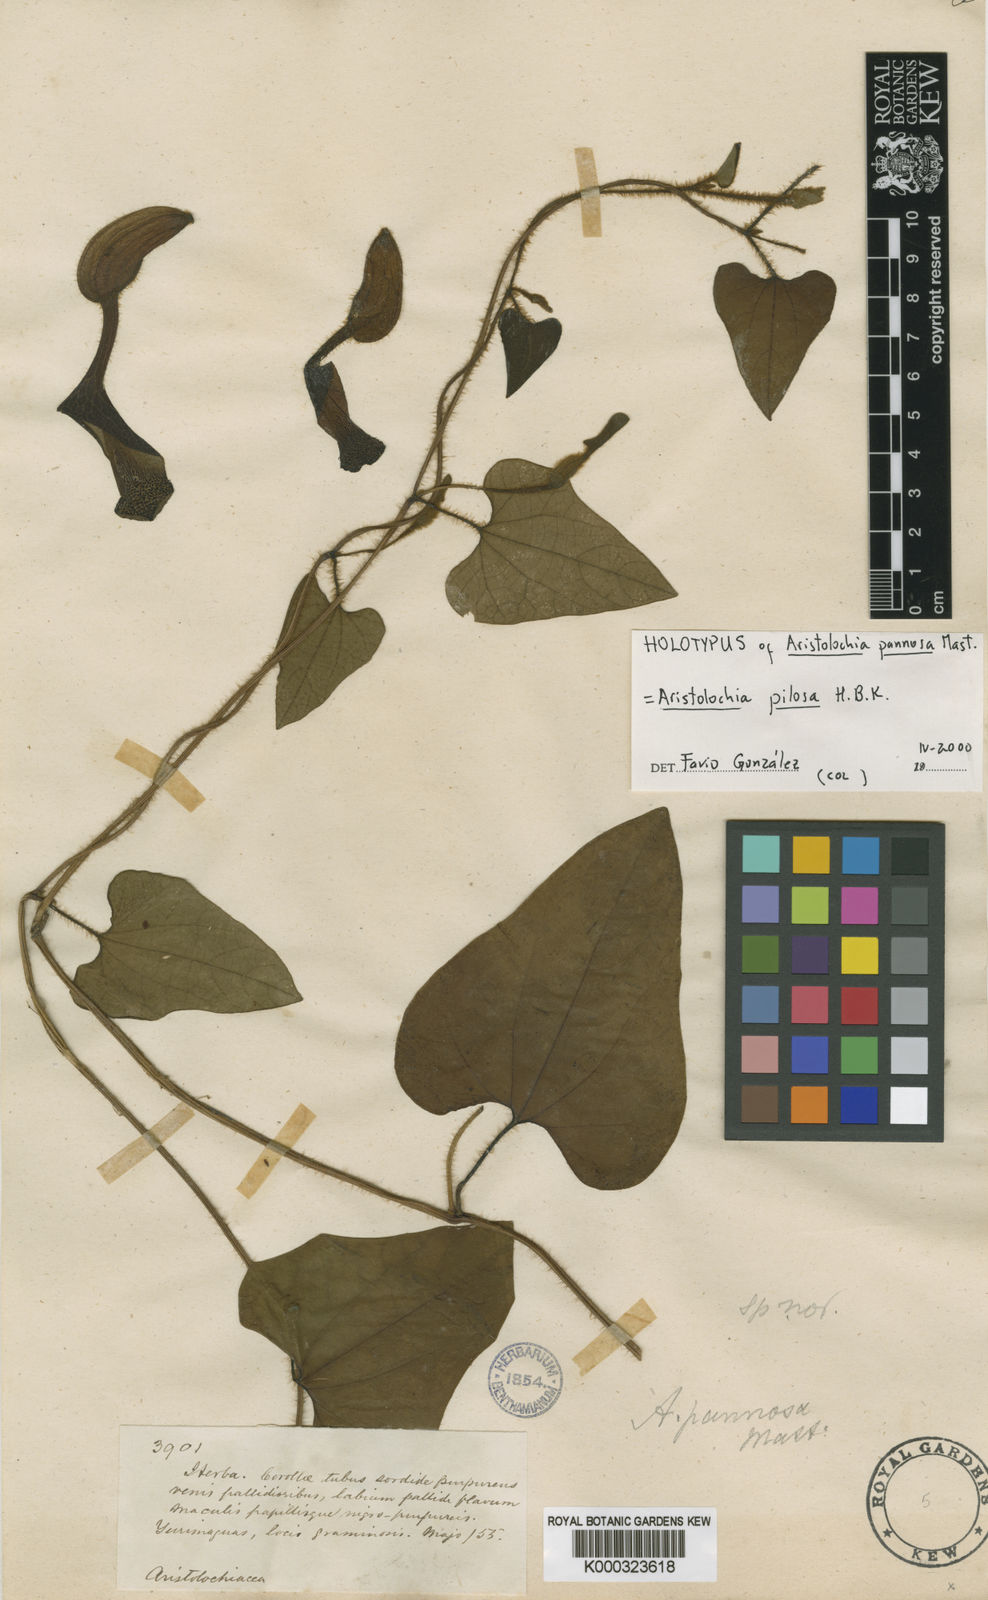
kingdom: Plantae
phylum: Tracheophyta
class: Magnoliopsida
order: Piperales
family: Aristolochiaceae
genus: Aristolochia
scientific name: Aristolochia
